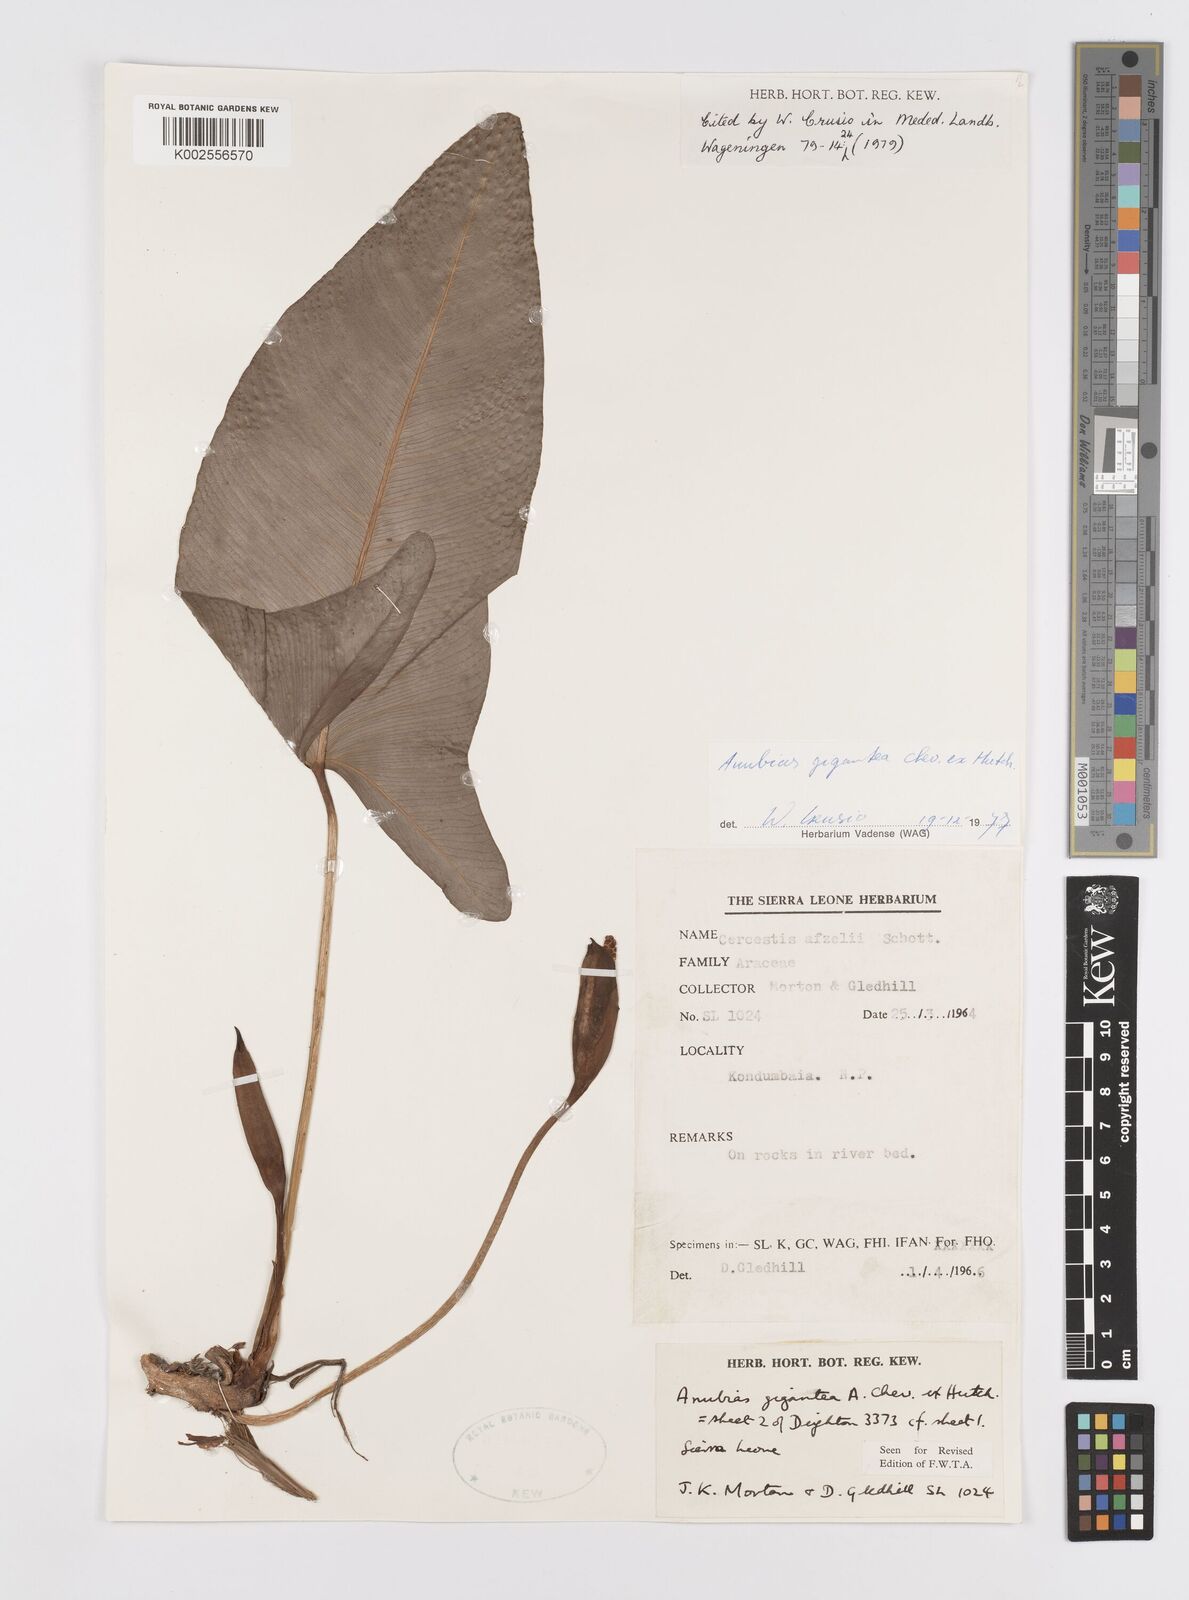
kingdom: Plantae
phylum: Tracheophyta
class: Liliopsida
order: Alismatales
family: Araceae
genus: Anubias
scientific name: Anubias gigantea
